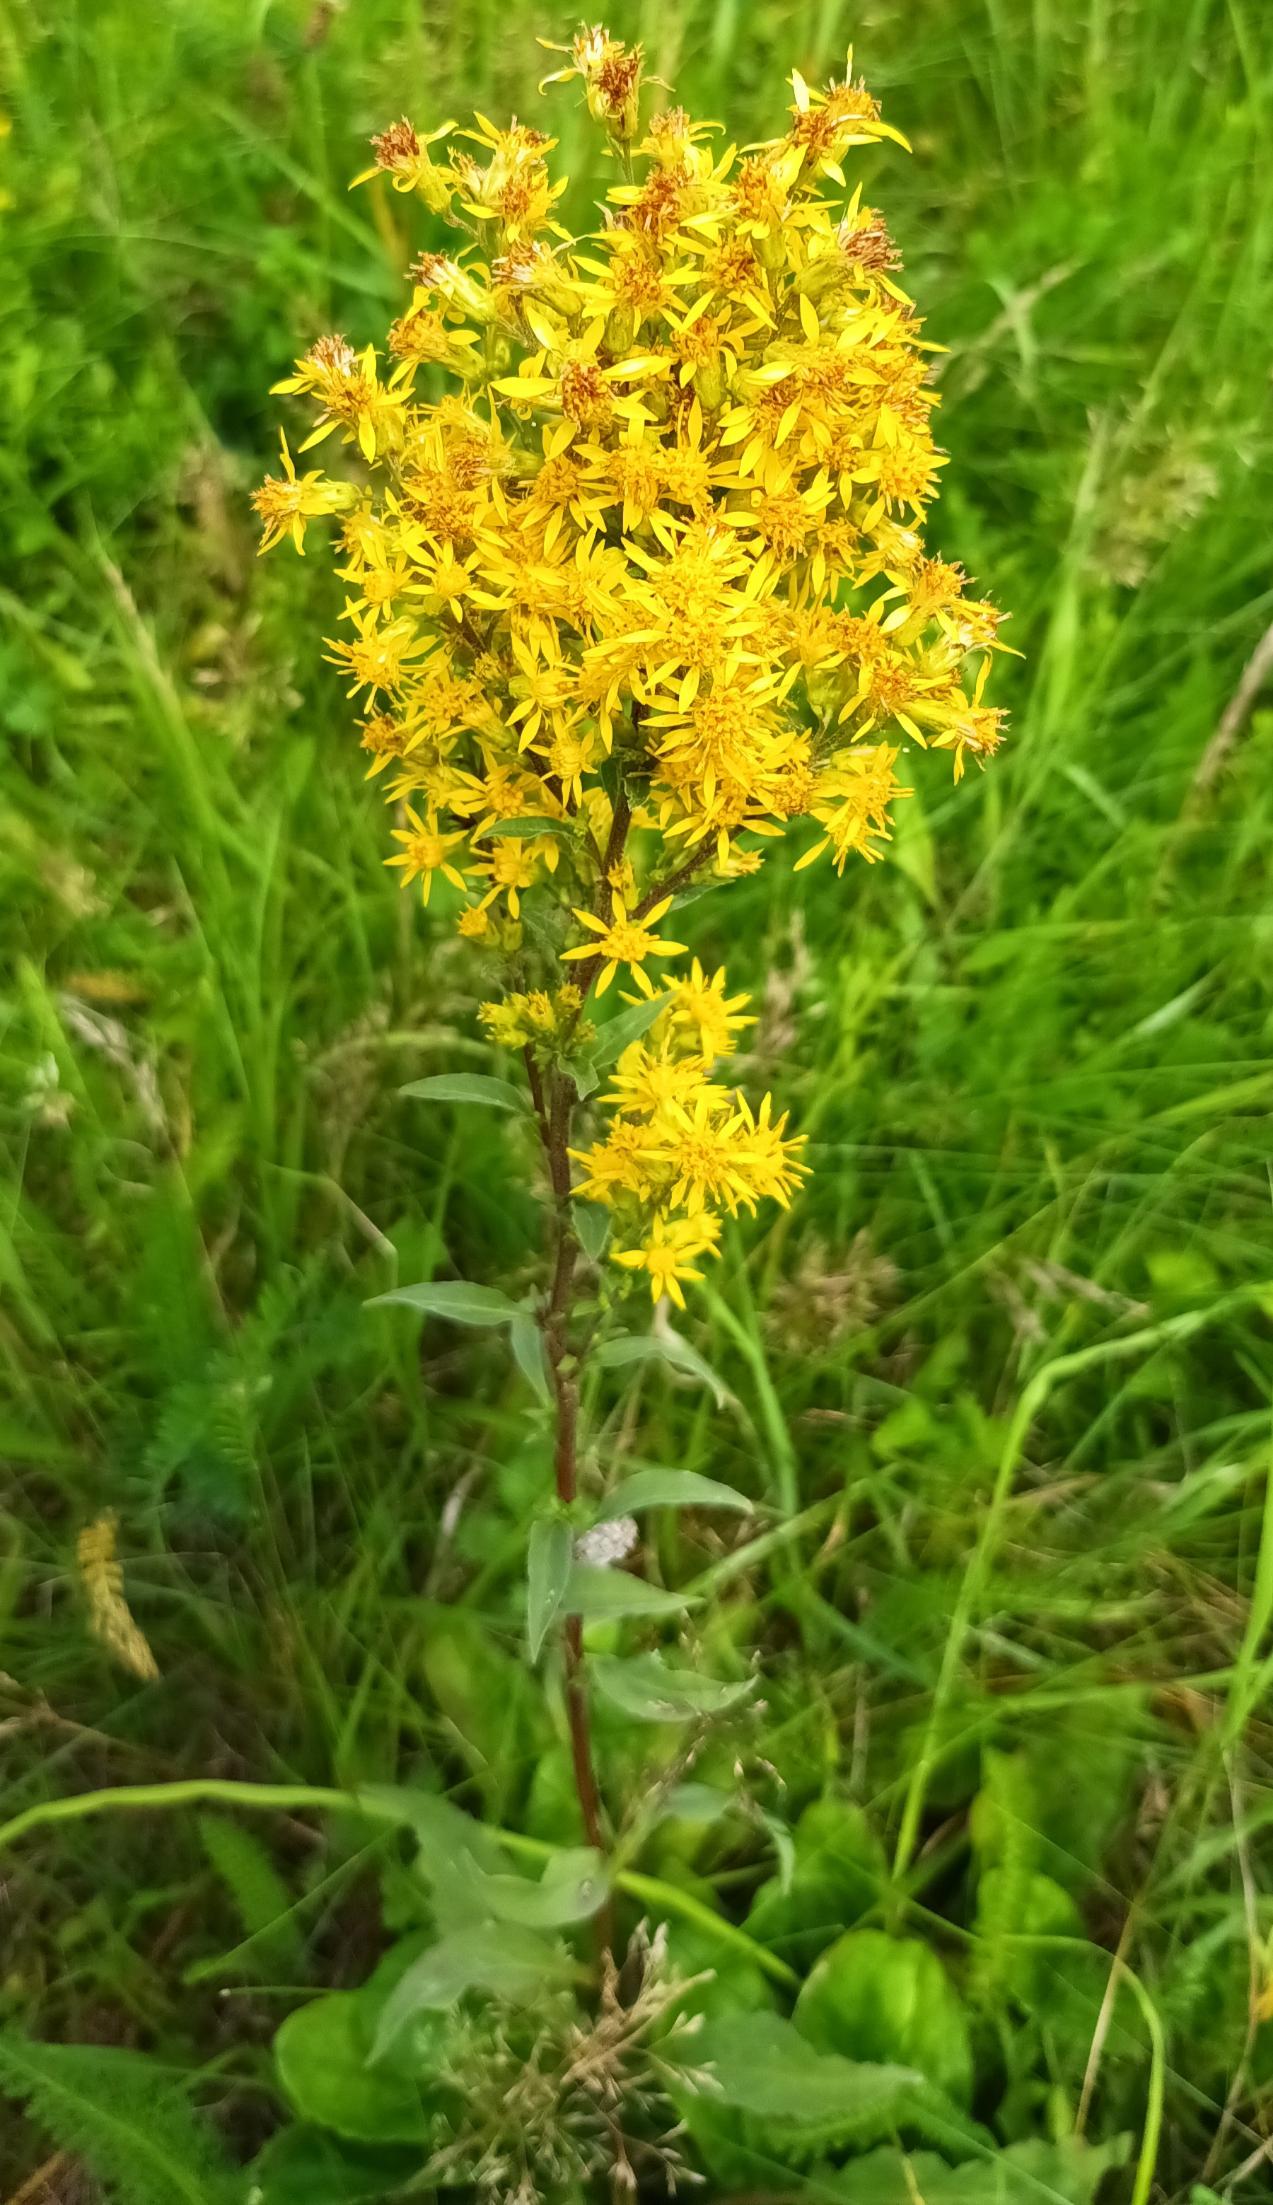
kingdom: Plantae
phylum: Tracheophyta
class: Magnoliopsida
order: Asterales
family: Asteraceae
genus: Solidago
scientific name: Solidago virgaurea
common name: Almindelig gyldenris
